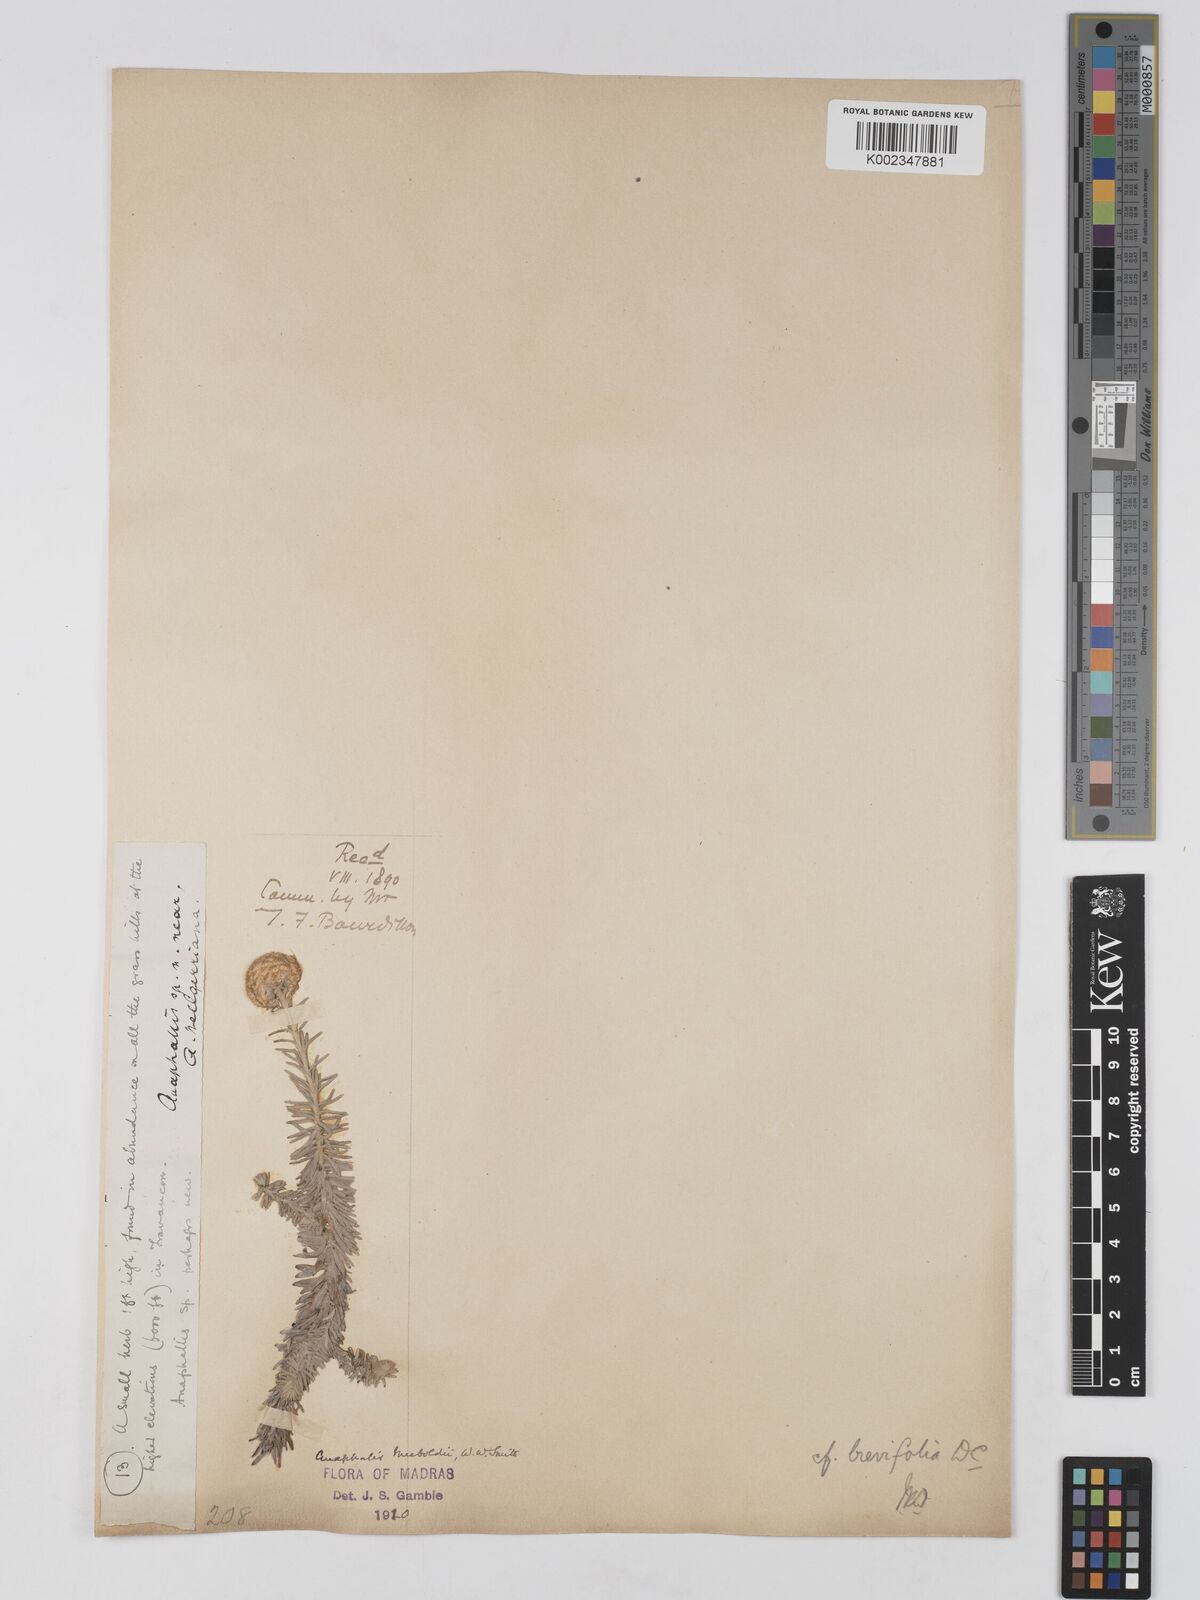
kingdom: Plantae
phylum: Tracheophyta
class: Magnoliopsida
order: Asterales
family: Asteraceae
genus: Anaphalis
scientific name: Anaphalis meeboldii
